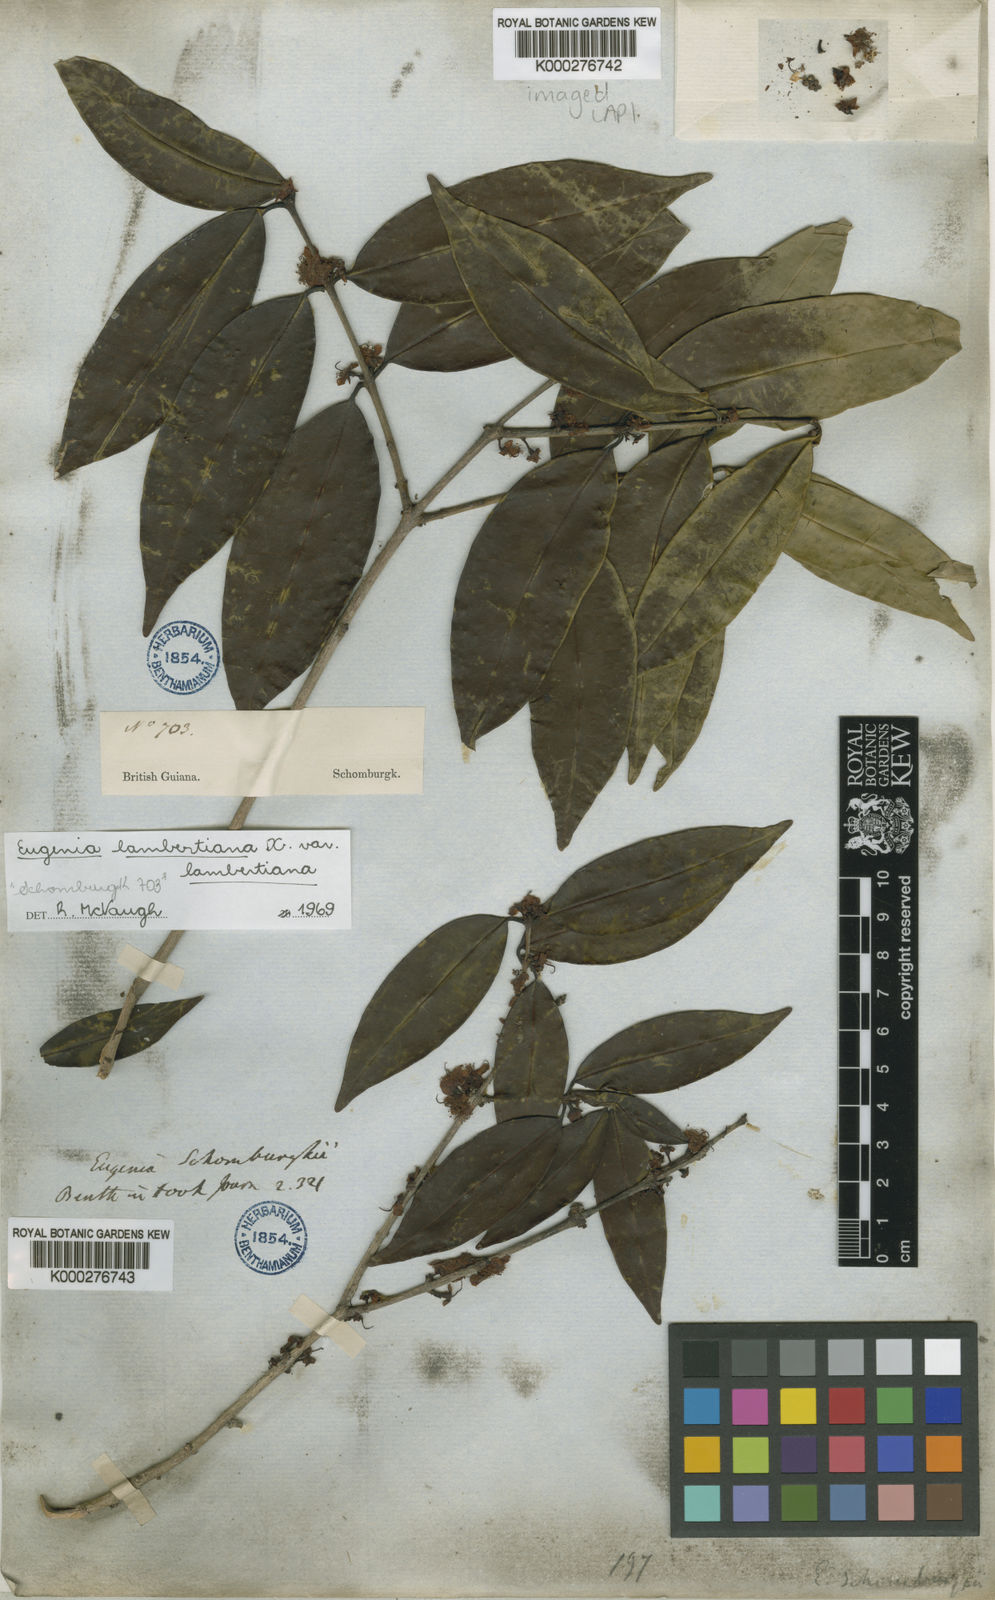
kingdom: Plantae
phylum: Tracheophyta
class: Magnoliopsida
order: Myrtales
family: Myrtaceae
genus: Eugenia
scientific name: Eugenia lambertiana
